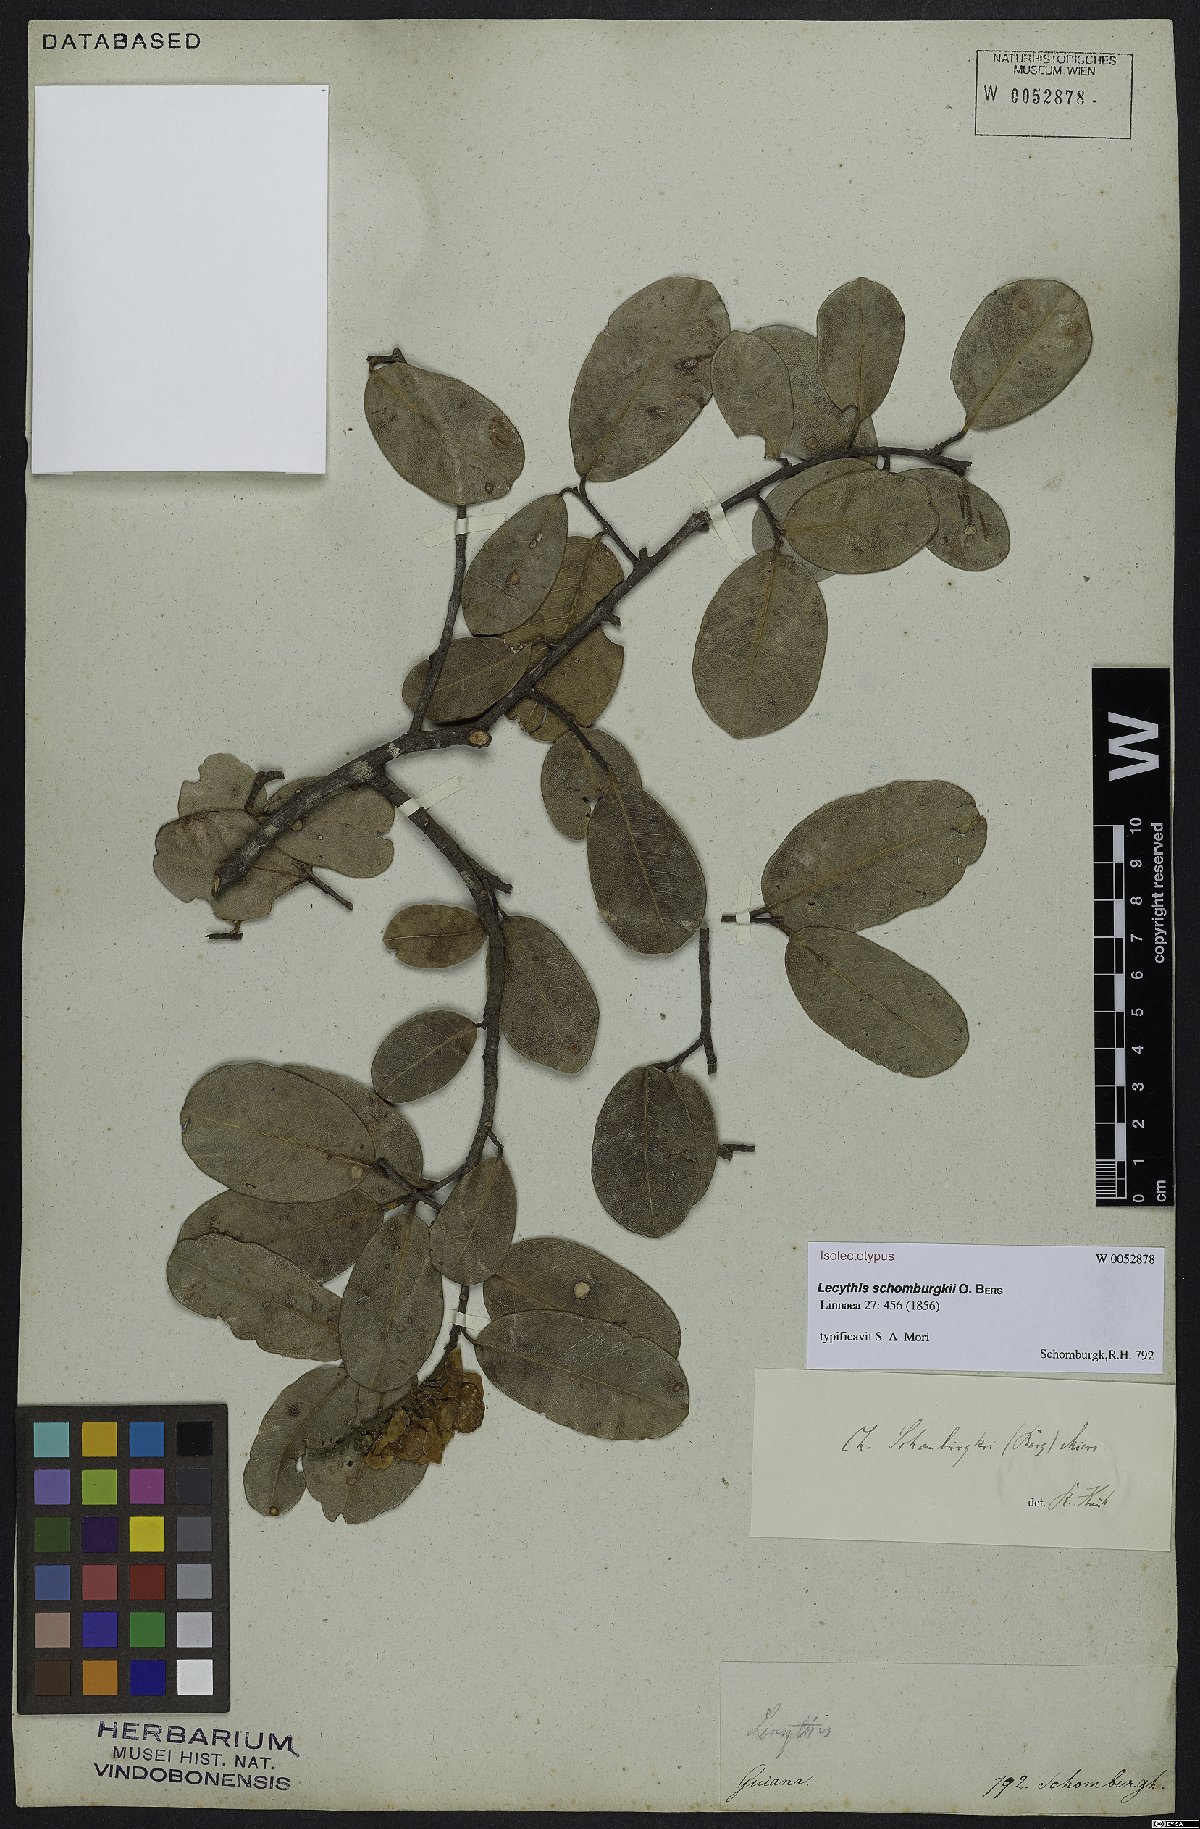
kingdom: Plantae
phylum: Tracheophyta
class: Magnoliopsida
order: Ericales
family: Lecythidaceae
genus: Lecythis
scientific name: Lecythis schomburgkii
